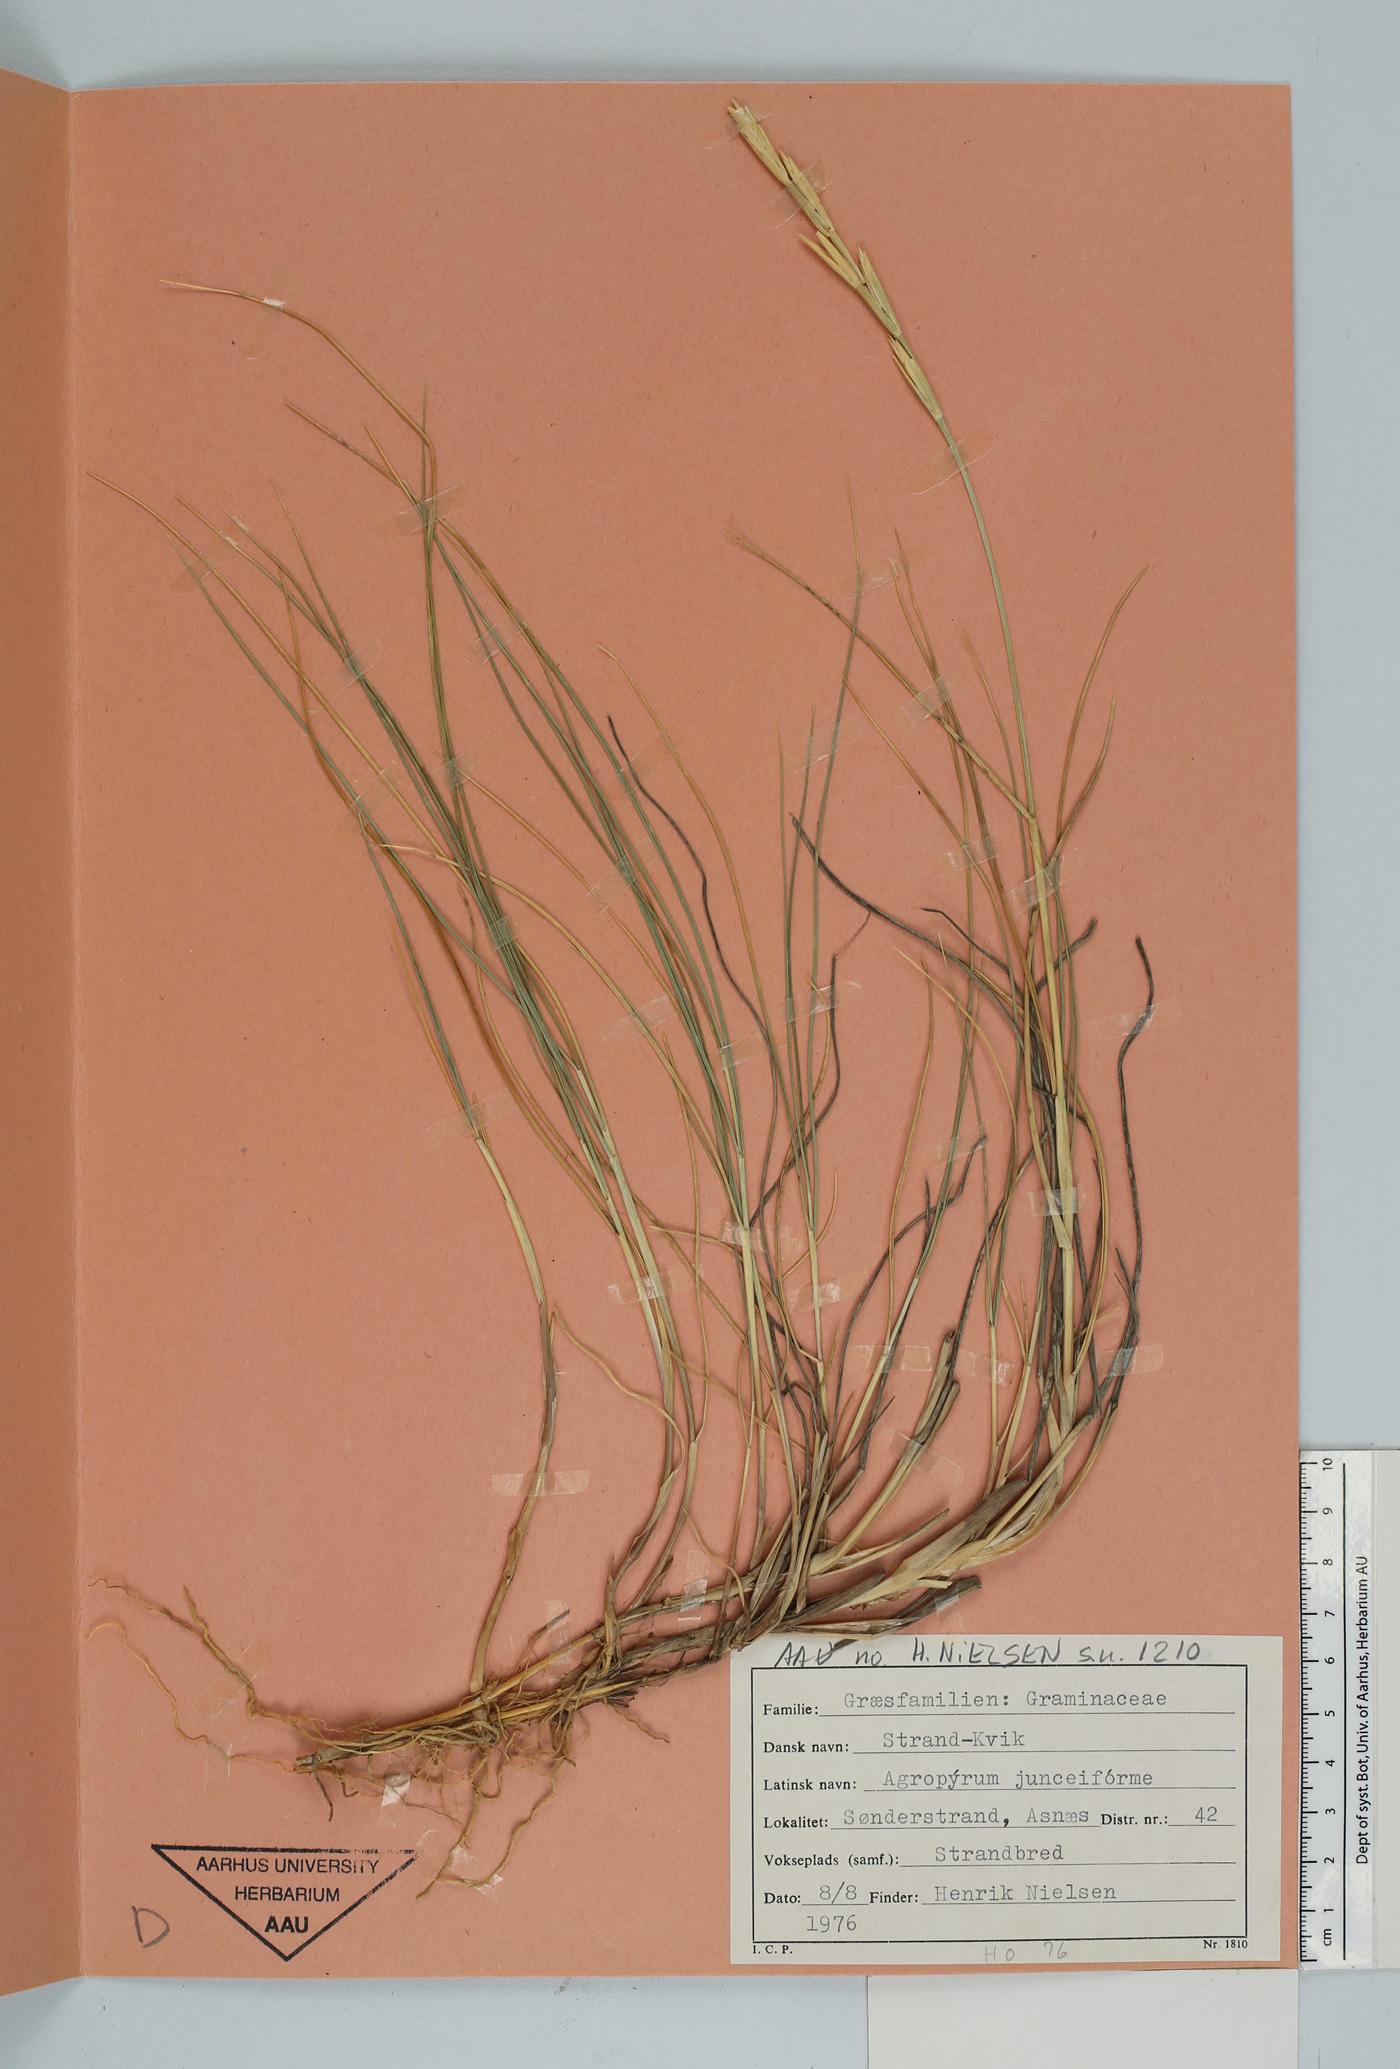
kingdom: Plantae
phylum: Tracheophyta
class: Liliopsida
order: Poales
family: Poaceae
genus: Thinopyrum
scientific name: Thinopyrum junceum
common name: Russian wheatgrass
